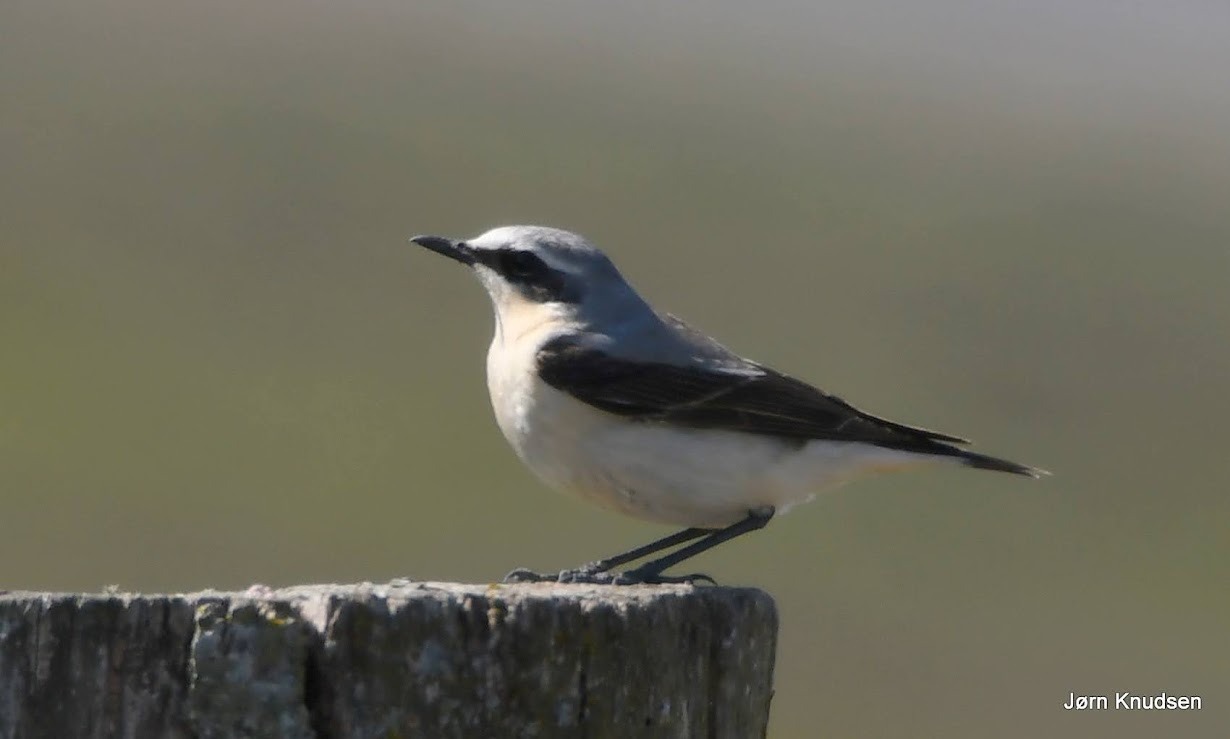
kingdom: Animalia
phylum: Chordata
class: Aves
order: Passeriformes
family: Muscicapidae
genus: Oenanthe
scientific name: Oenanthe oenanthe
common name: Stenpikker
